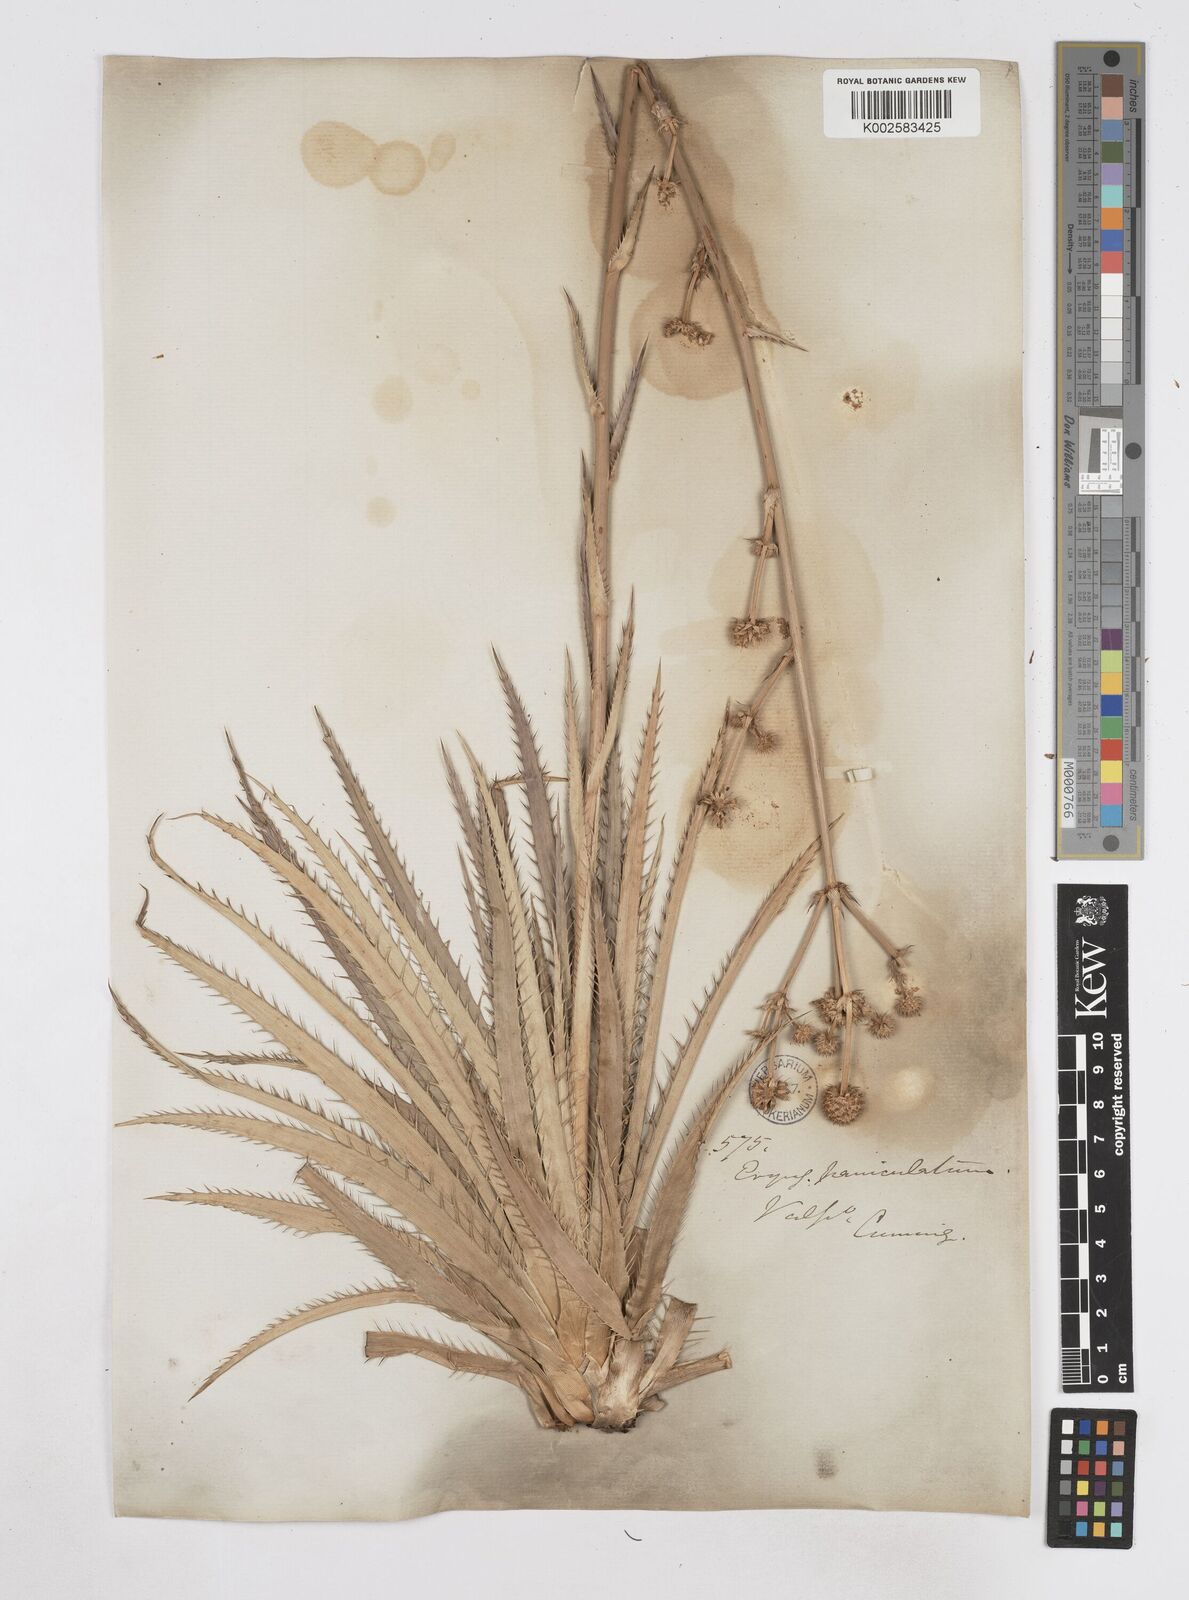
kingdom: Plantae
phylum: Tracheophyta
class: Magnoliopsida
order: Apiales
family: Apiaceae
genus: Eryngium
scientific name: Eryngium humboldtii
